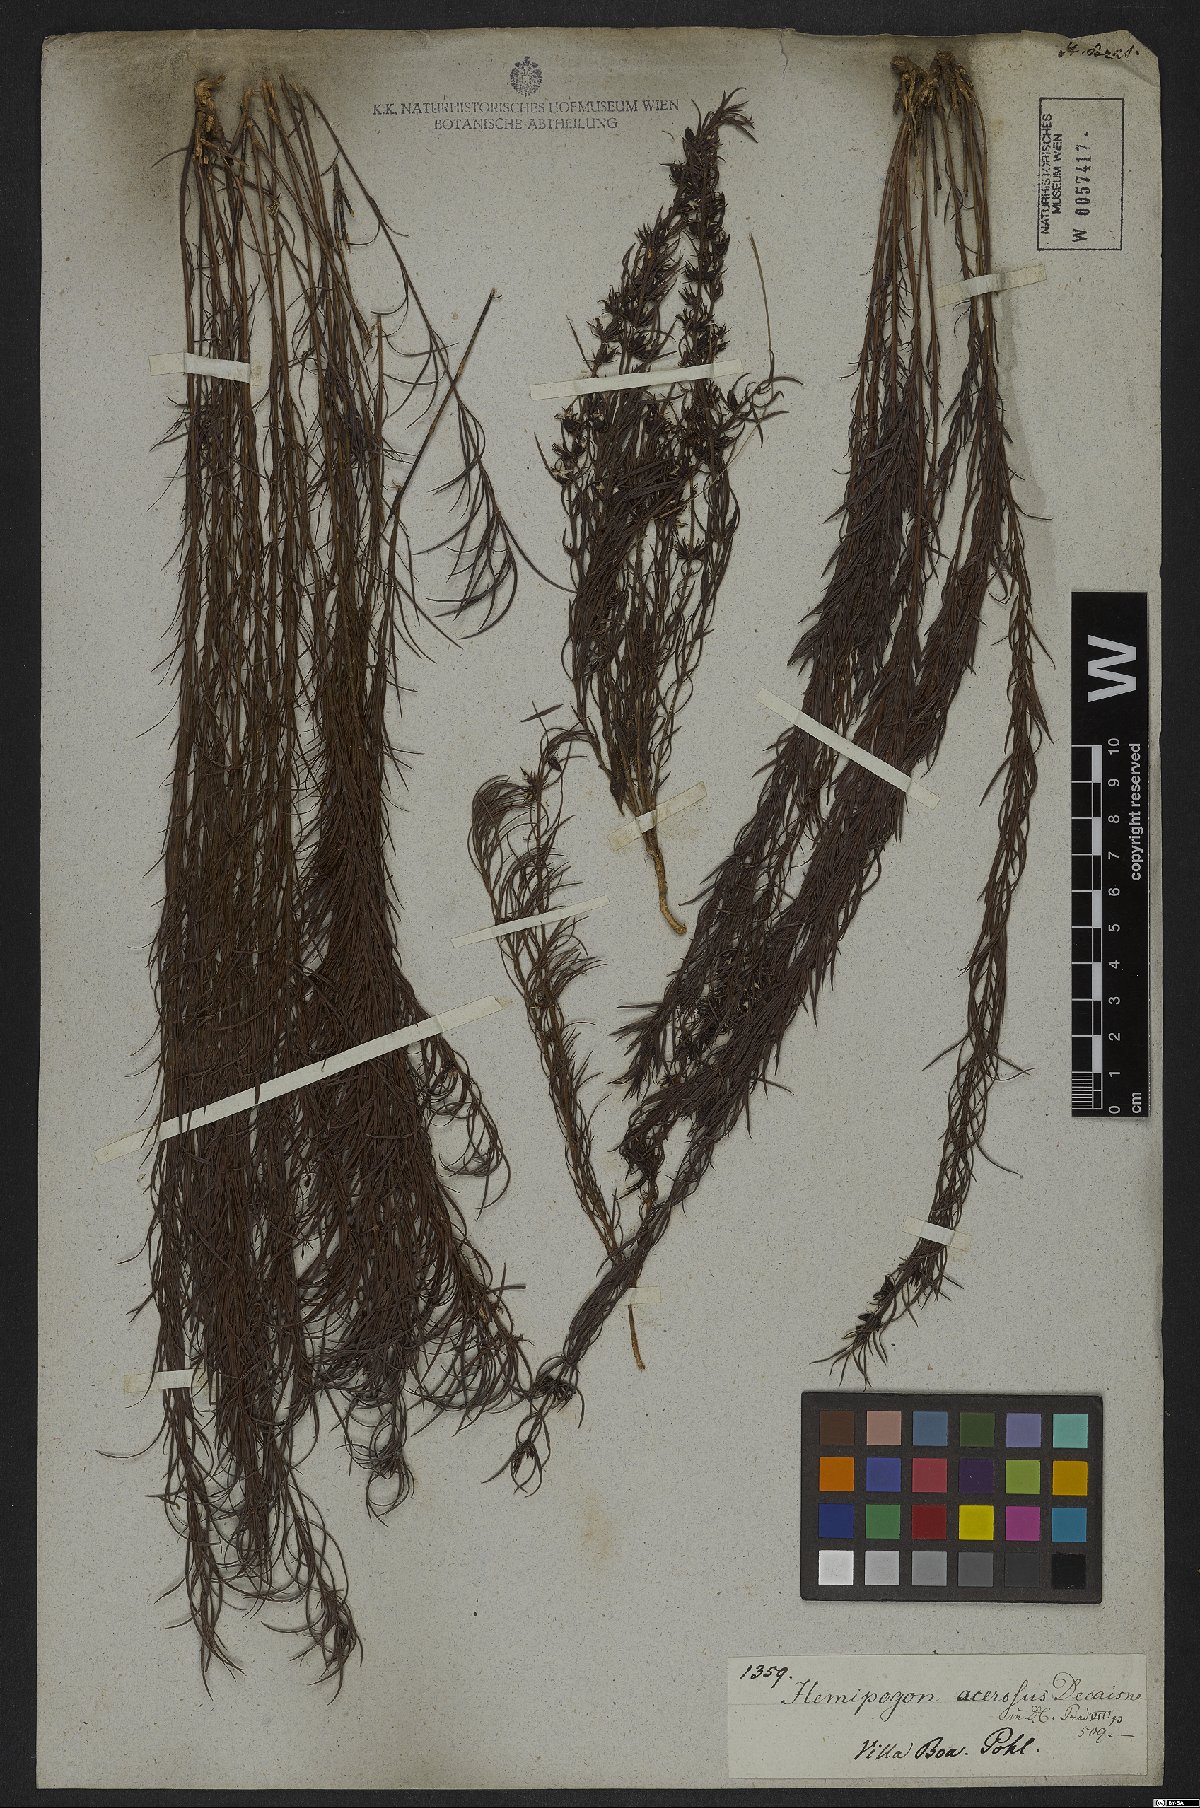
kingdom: Plantae
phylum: Tracheophyta
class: Magnoliopsida
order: Gentianales
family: Apocynaceae
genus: Hemipogon
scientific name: Hemipogon acerosus
